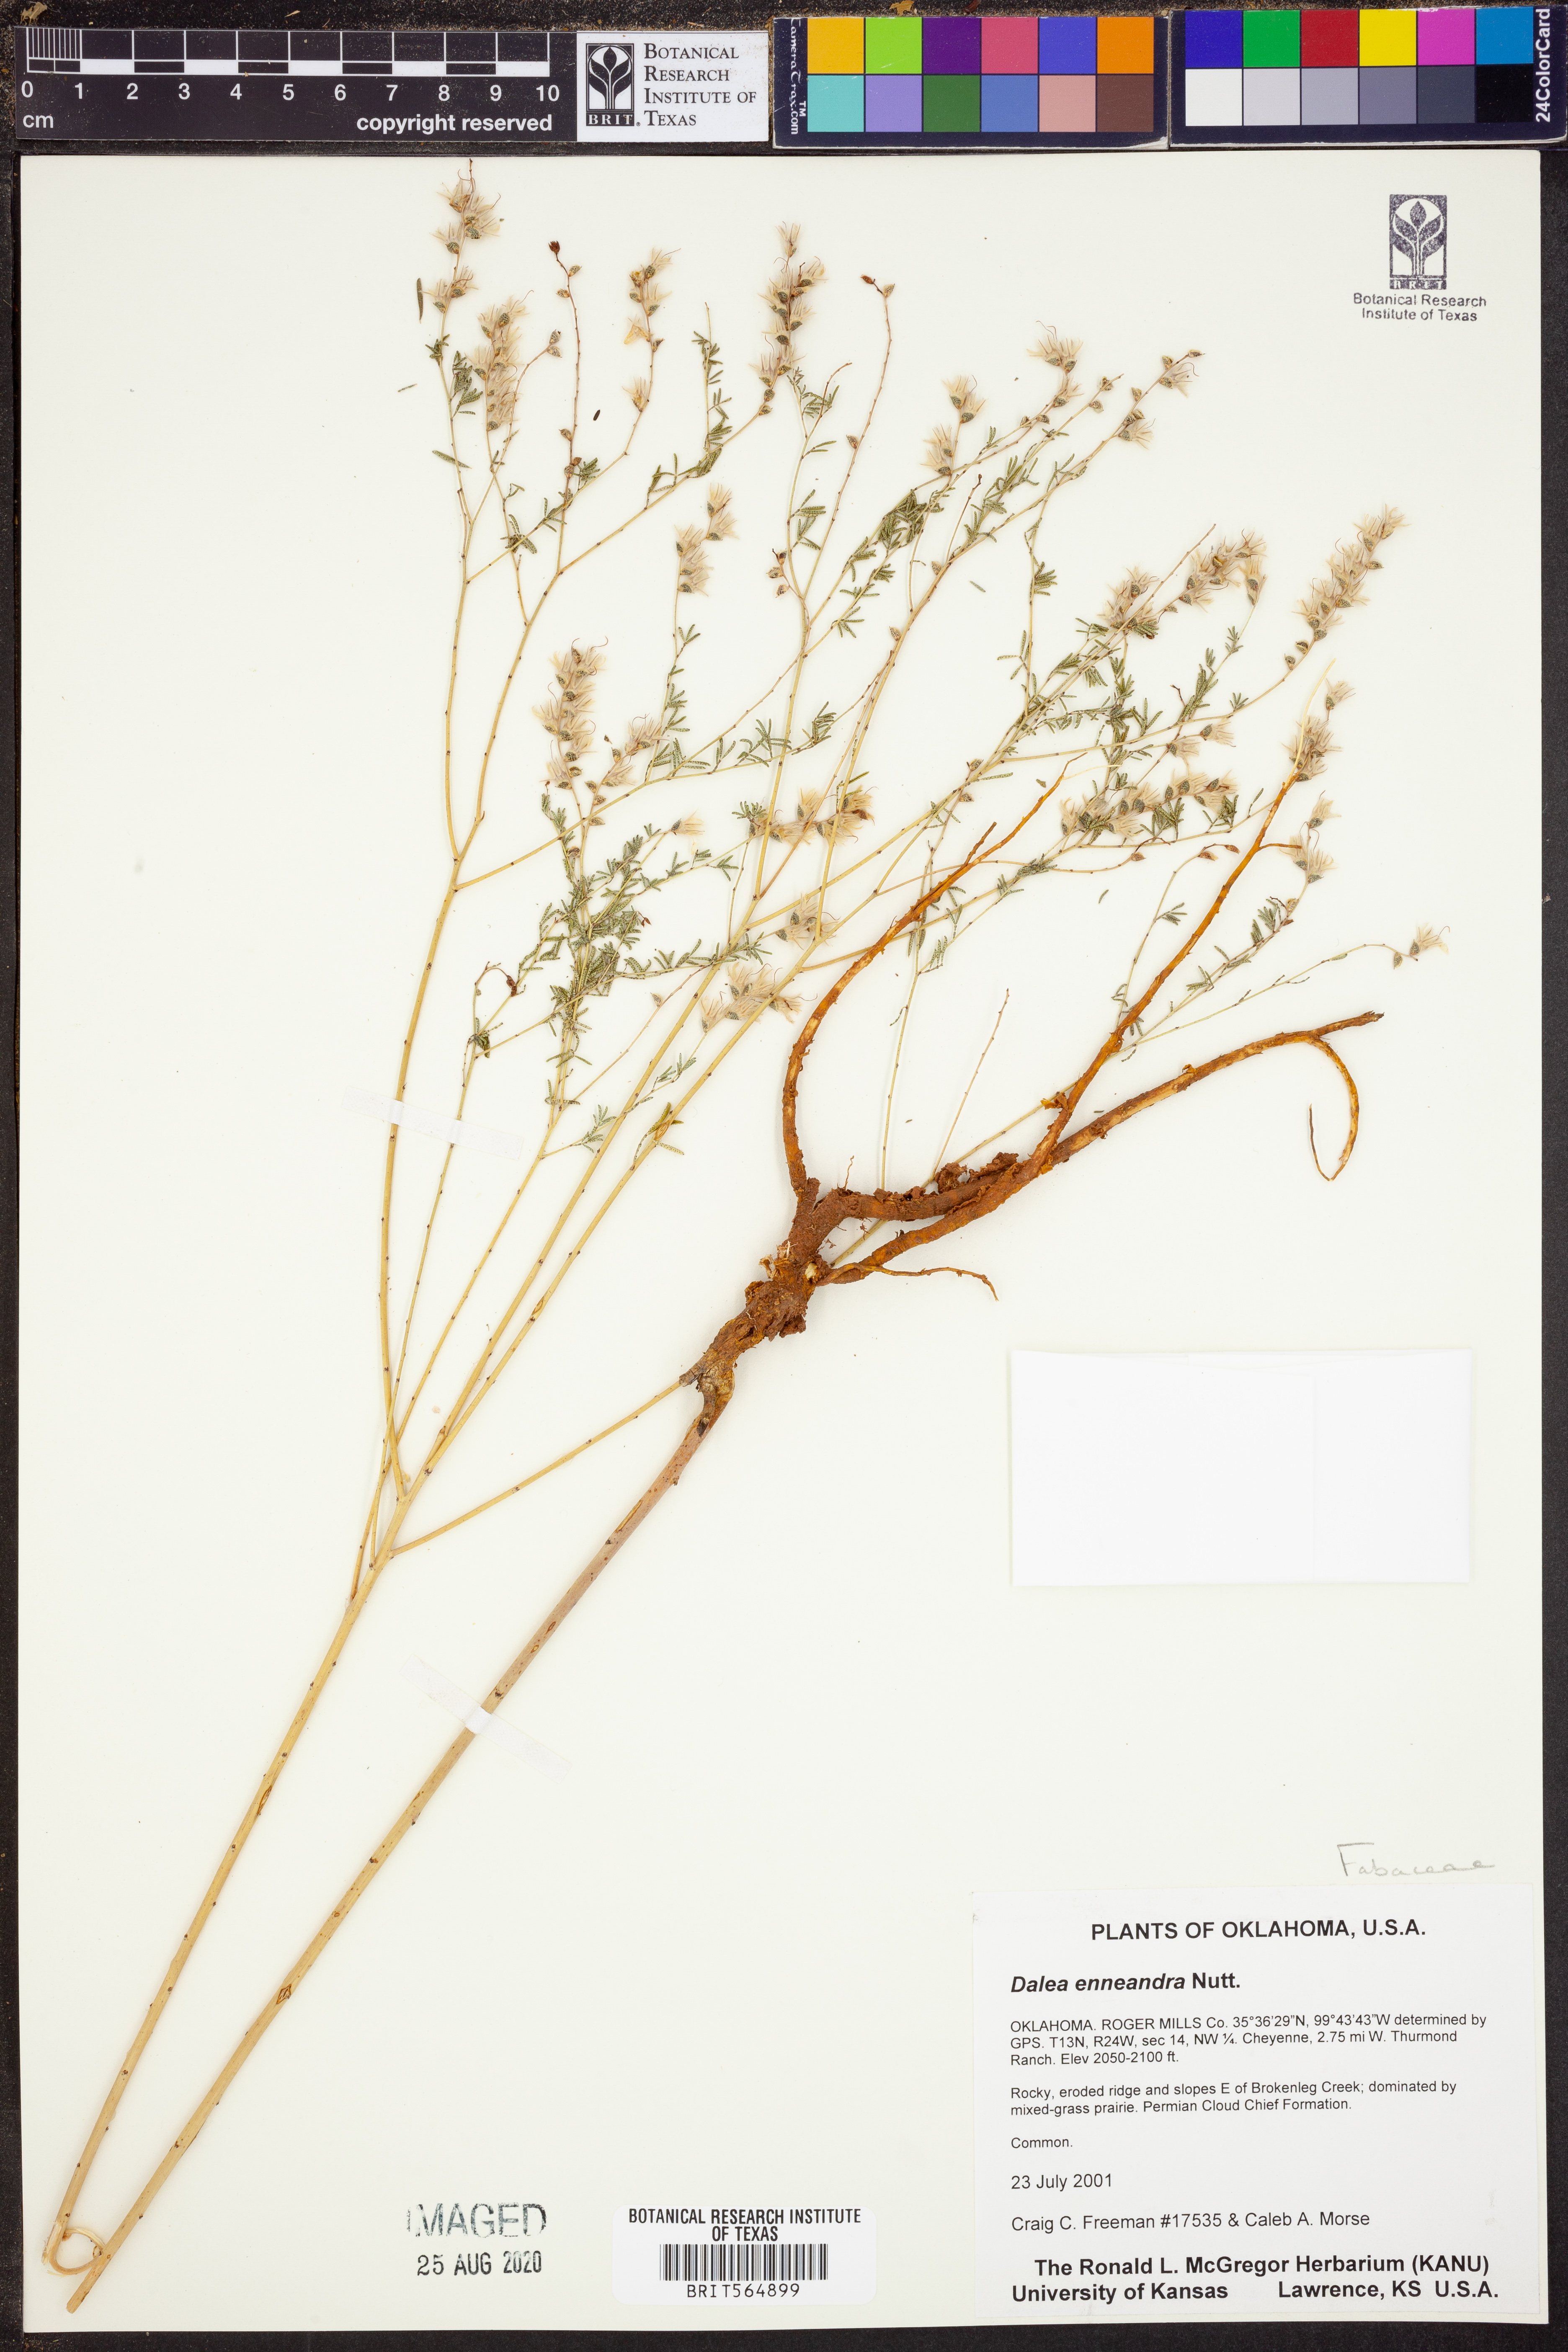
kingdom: Plantae
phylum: Tracheophyta
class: Magnoliopsida
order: Fabales
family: Fabaceae
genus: Dalea
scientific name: Dalea enneandra
